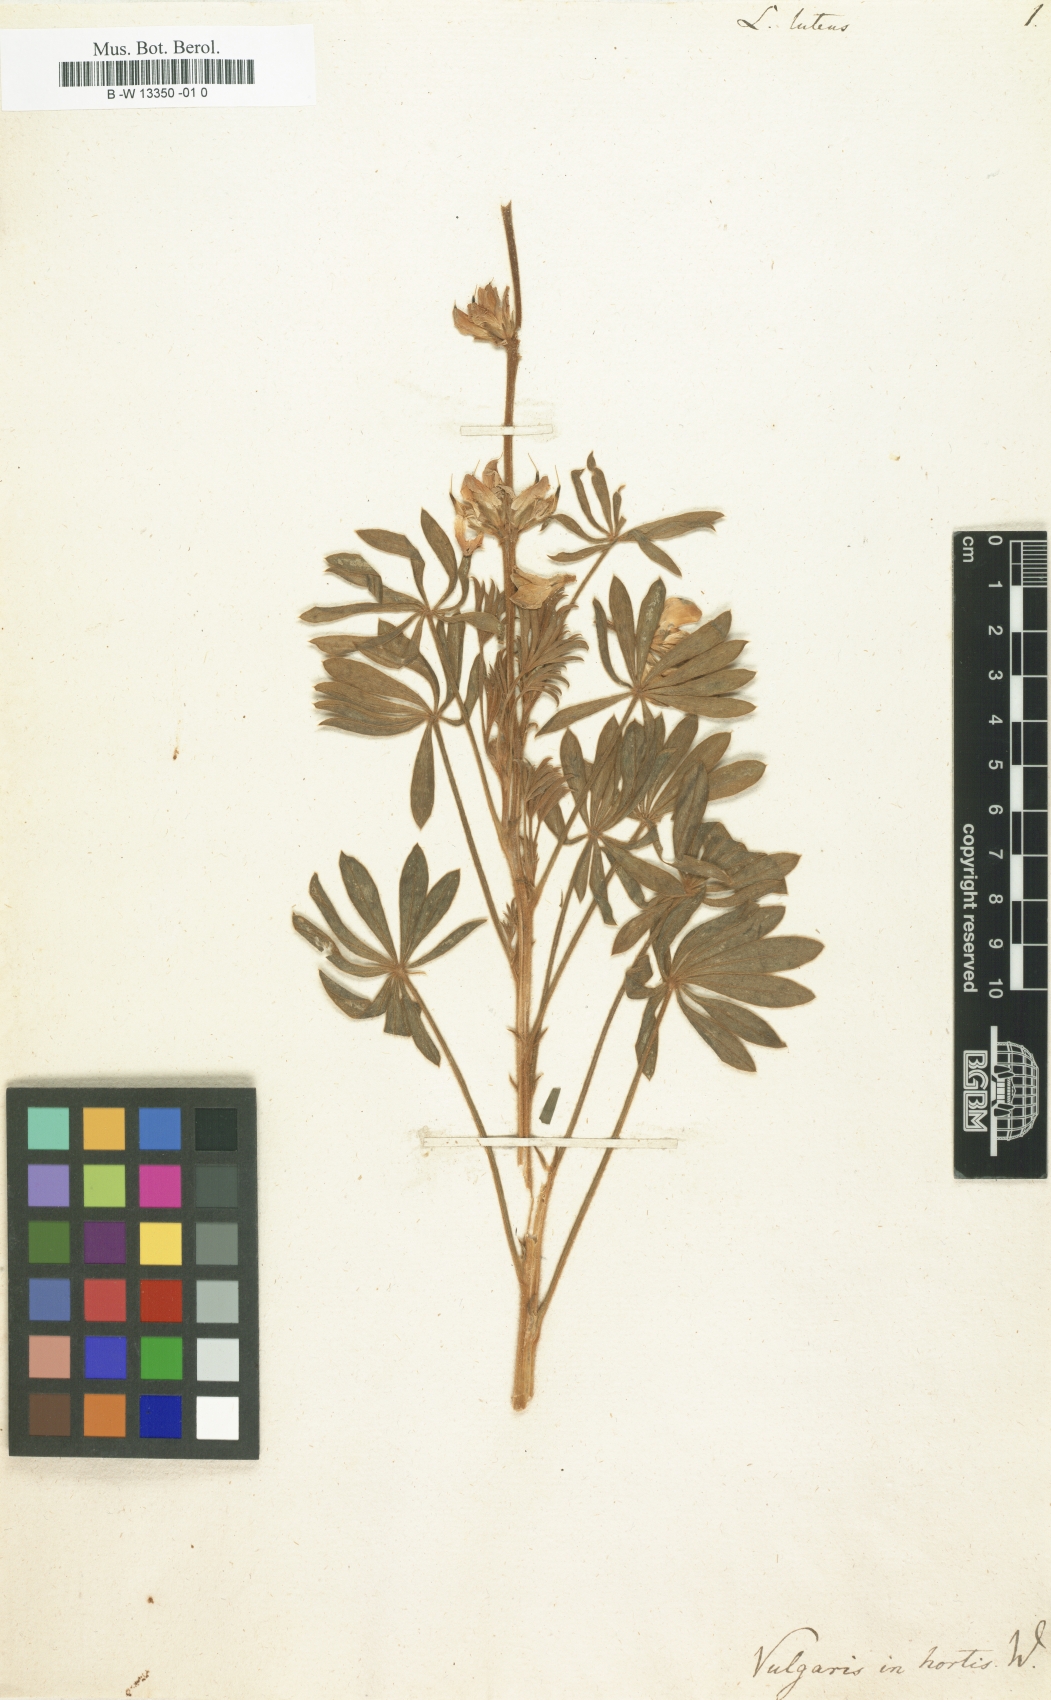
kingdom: Plantae
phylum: Tracheophyta
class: Magnoliopsida
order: Fabales
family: Fabaceae
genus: Lupinus
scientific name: Lupinus luteus
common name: European yellow lupine
